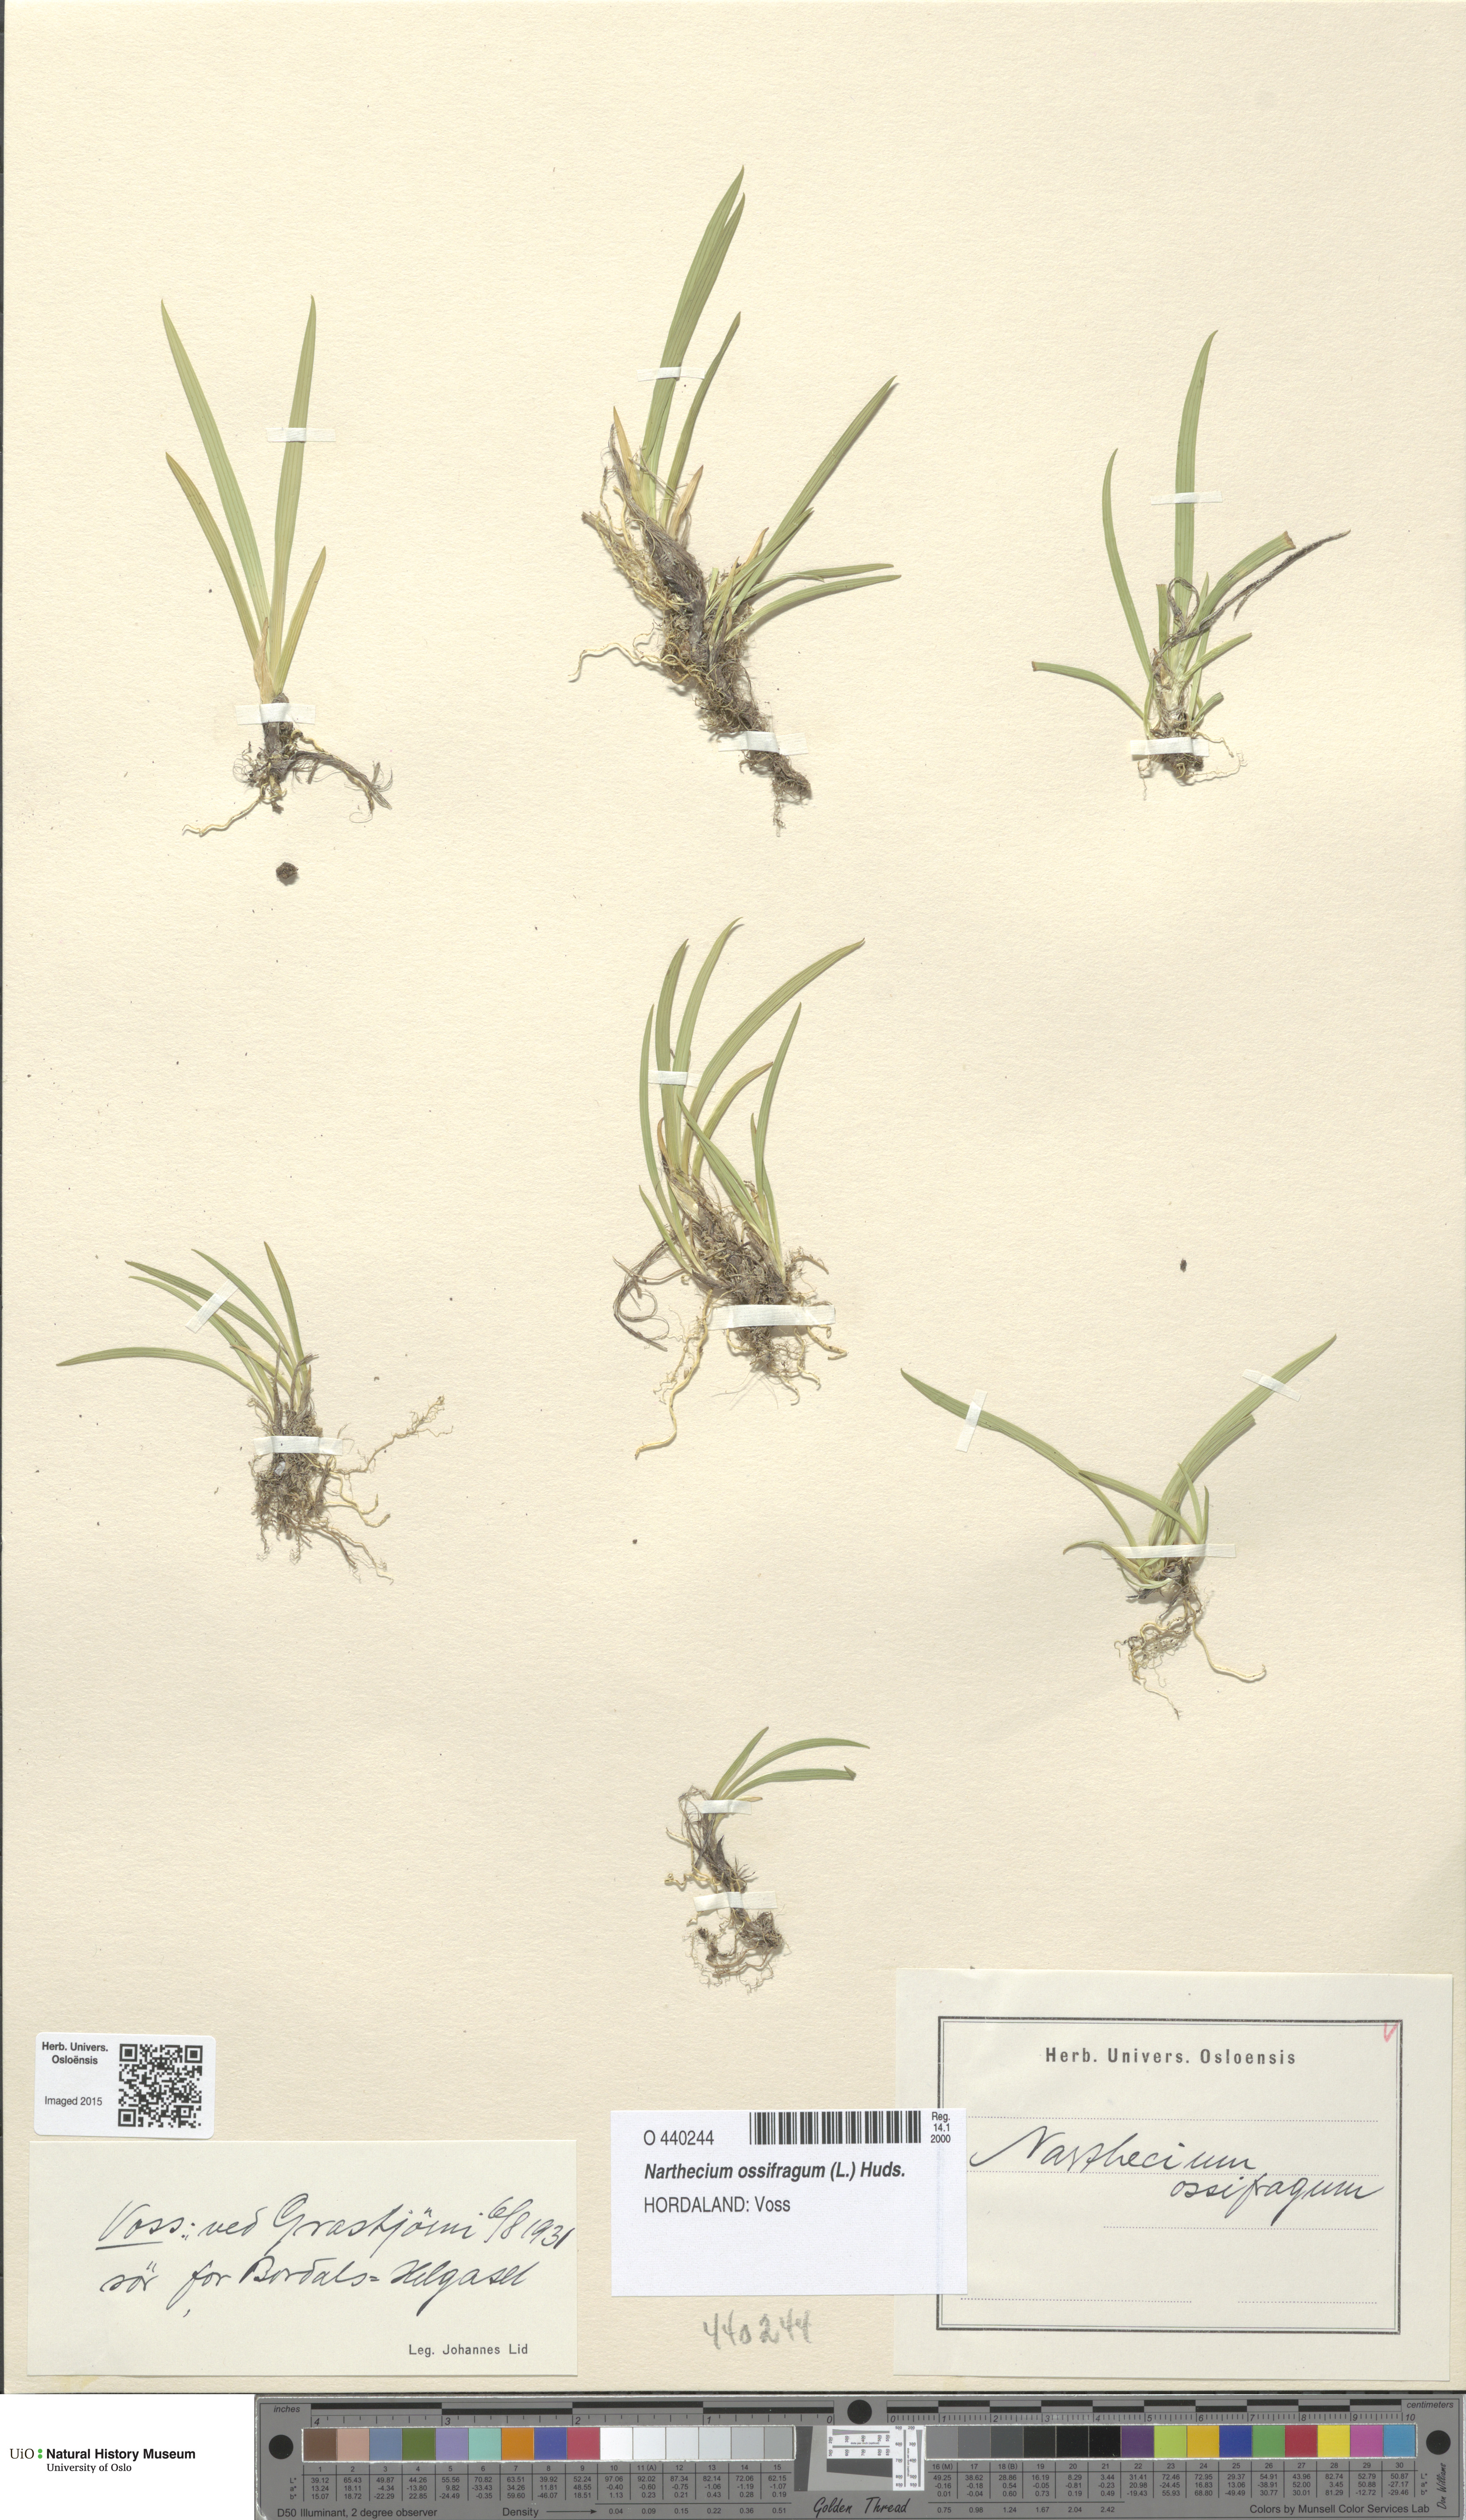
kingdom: Plantae
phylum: Tracheophyta
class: Liliopsida
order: Dioscoreales
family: Nartheciaceae
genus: Narthecium
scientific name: Narthecium ossifragum
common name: Bog asphodel
